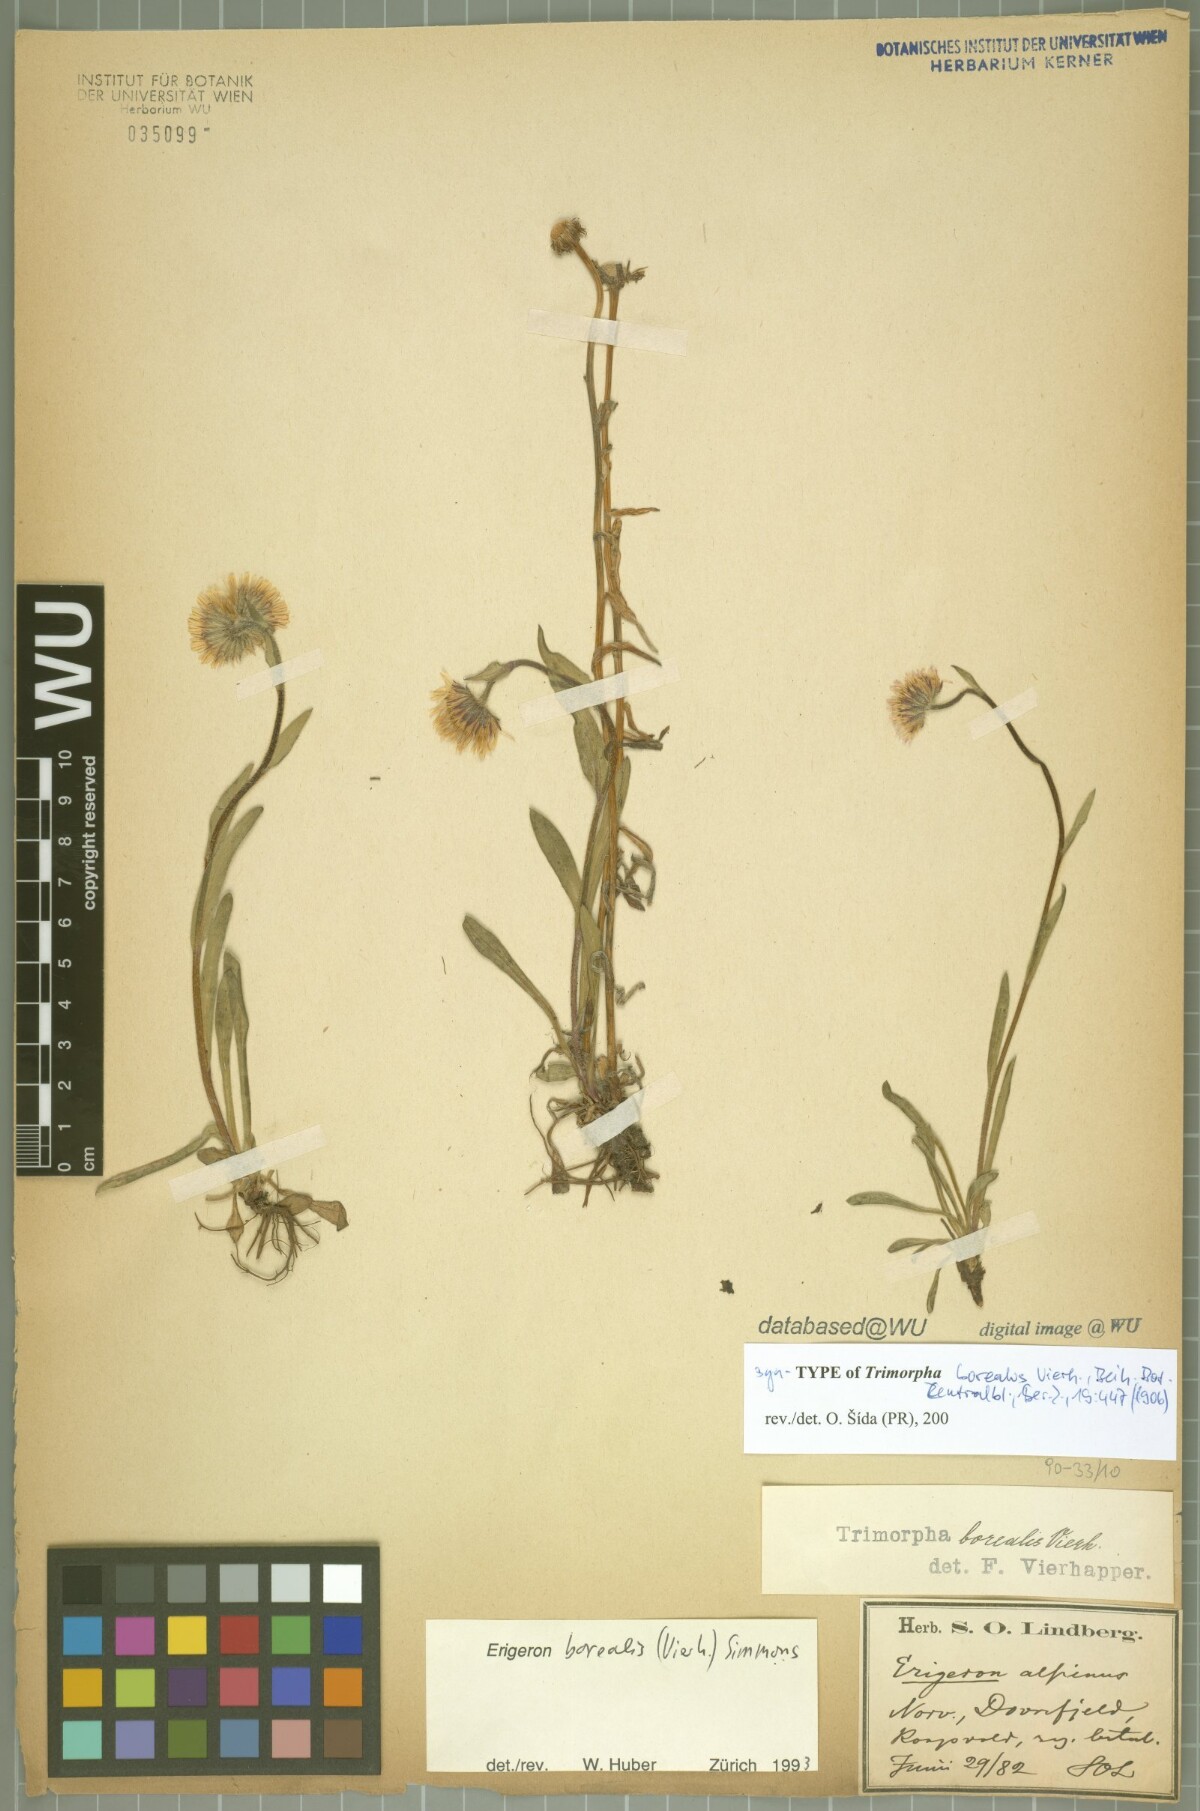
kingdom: Plantae
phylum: Tracheophyta
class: Magnoliopsida
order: Asterales
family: Asteraceae
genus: Erigeron
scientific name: Erigeron borealis
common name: Alpine fleabane
